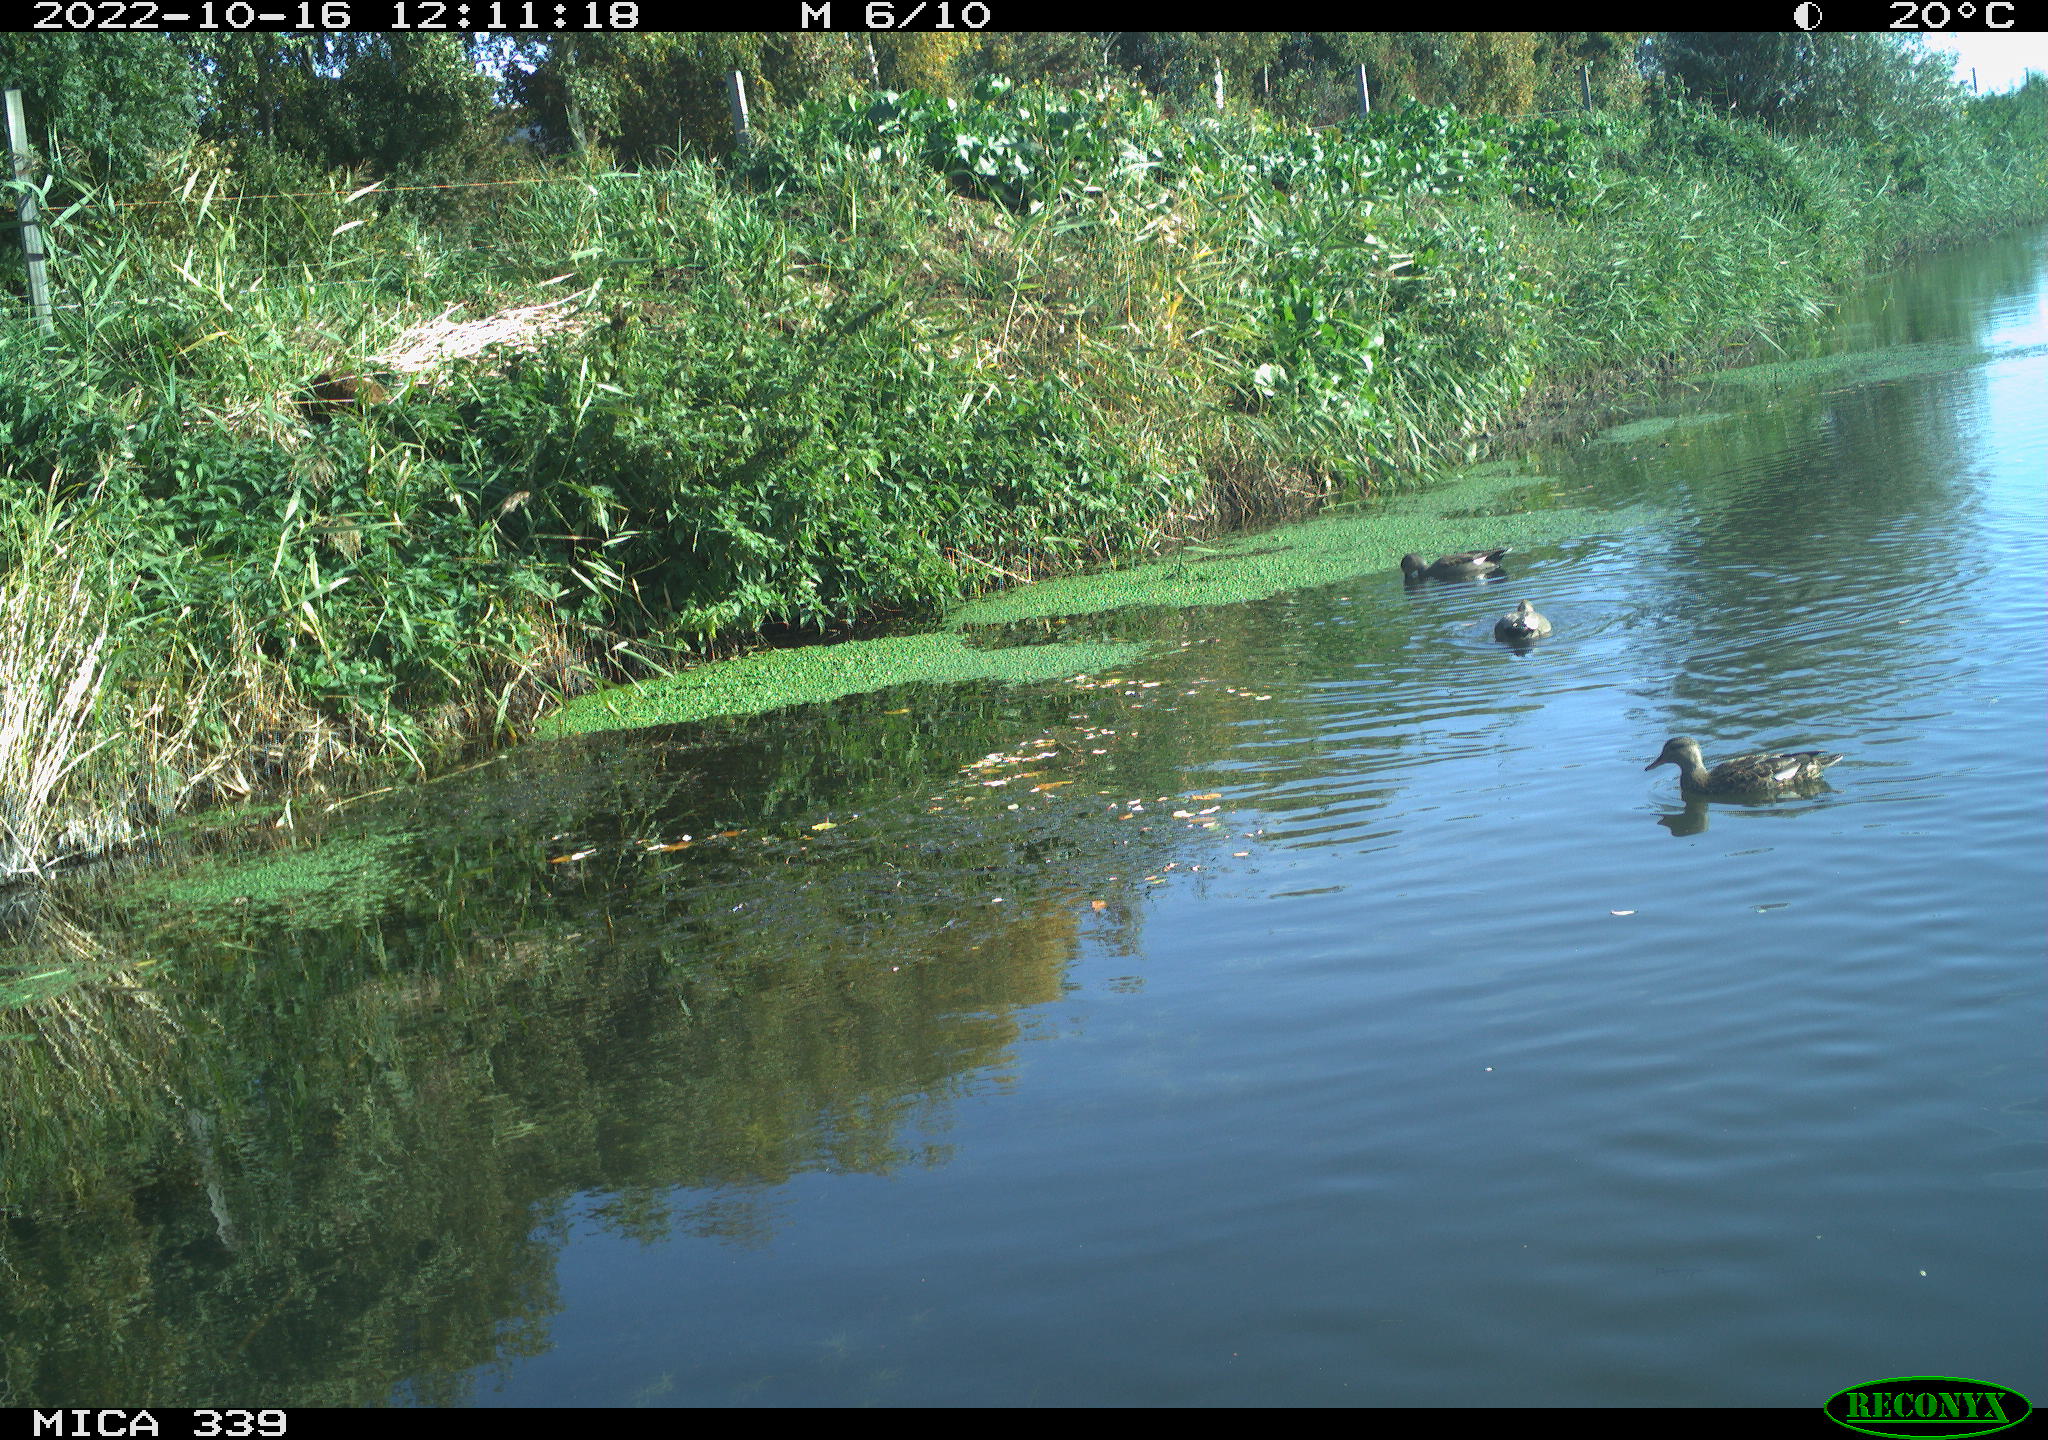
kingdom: Animalia
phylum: Chordata
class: Aves
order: Anseriformes
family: Anatidae
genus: Mareca
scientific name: Mareca strepera
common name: Gadwall
